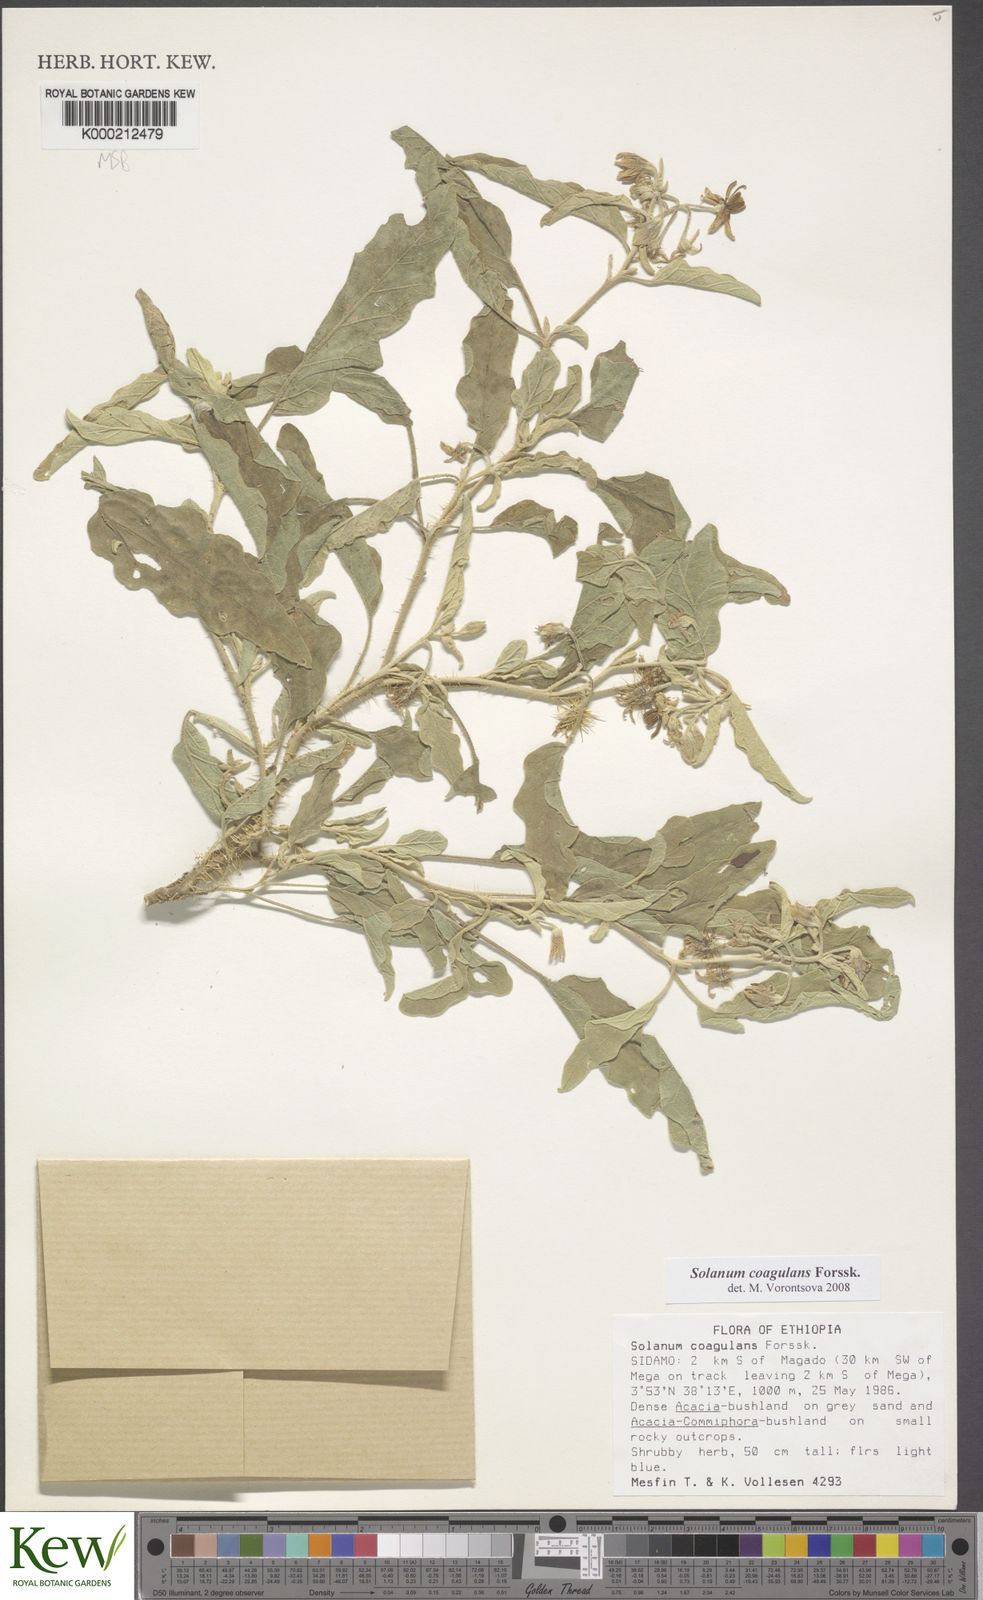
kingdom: Plantae
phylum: Tracheophyta
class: Magnoliopsida
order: Solanales
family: Solanaceae
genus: Solanum
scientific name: Solanum coagulans
